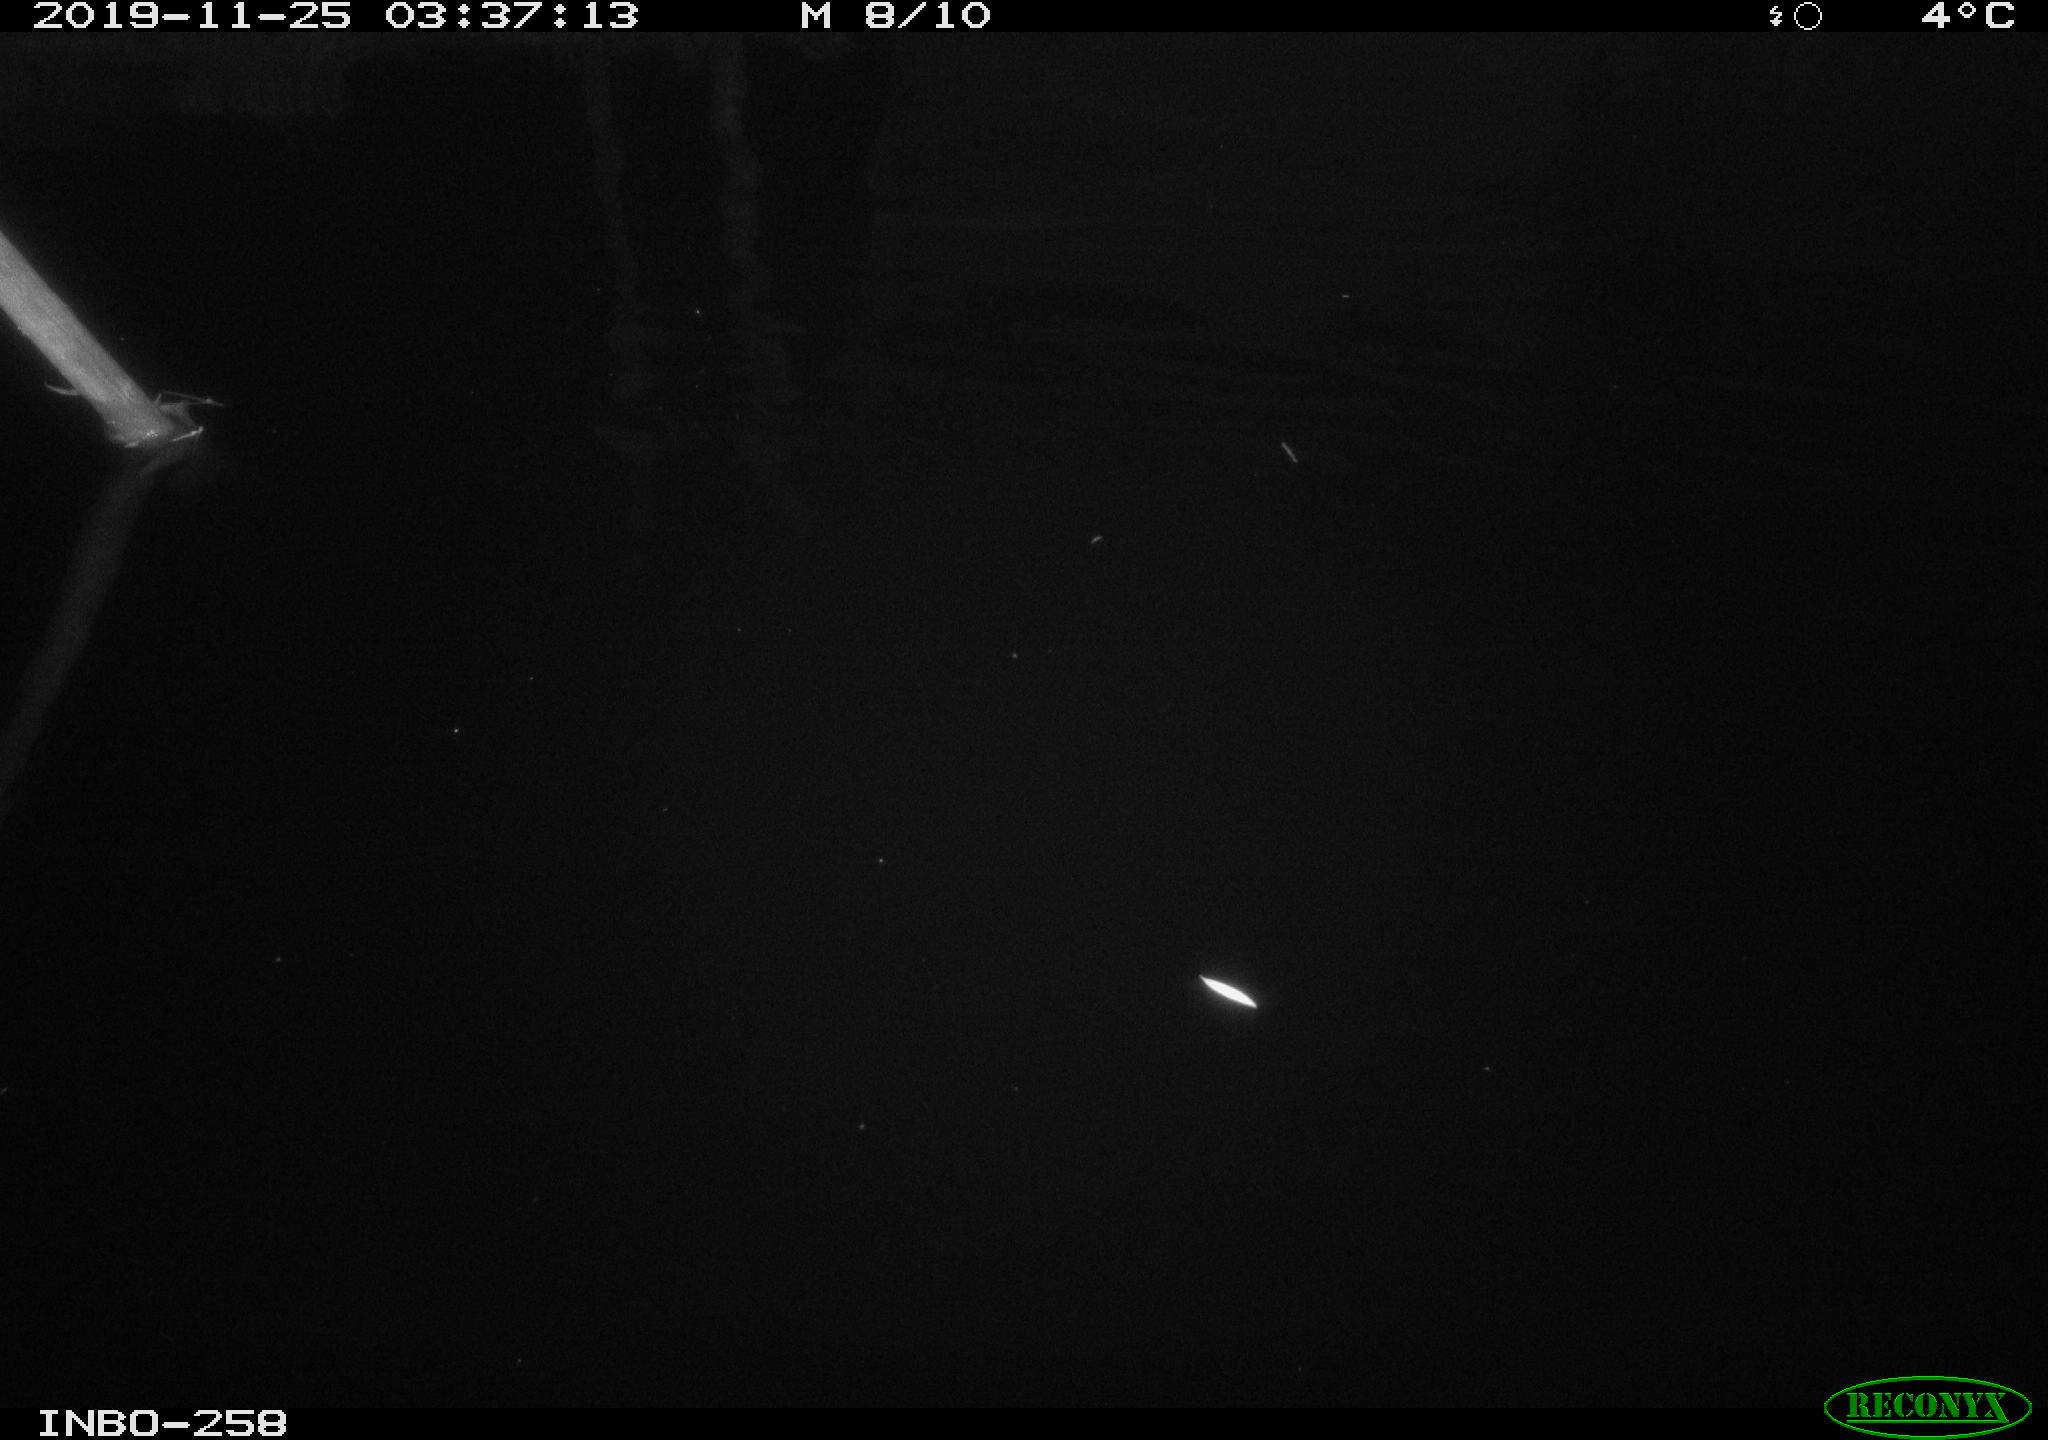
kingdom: Animalia
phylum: Chordata
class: Aves
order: Anseriformes
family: Anatidae
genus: Anas
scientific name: Anas platyrhynchos
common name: Mallard
